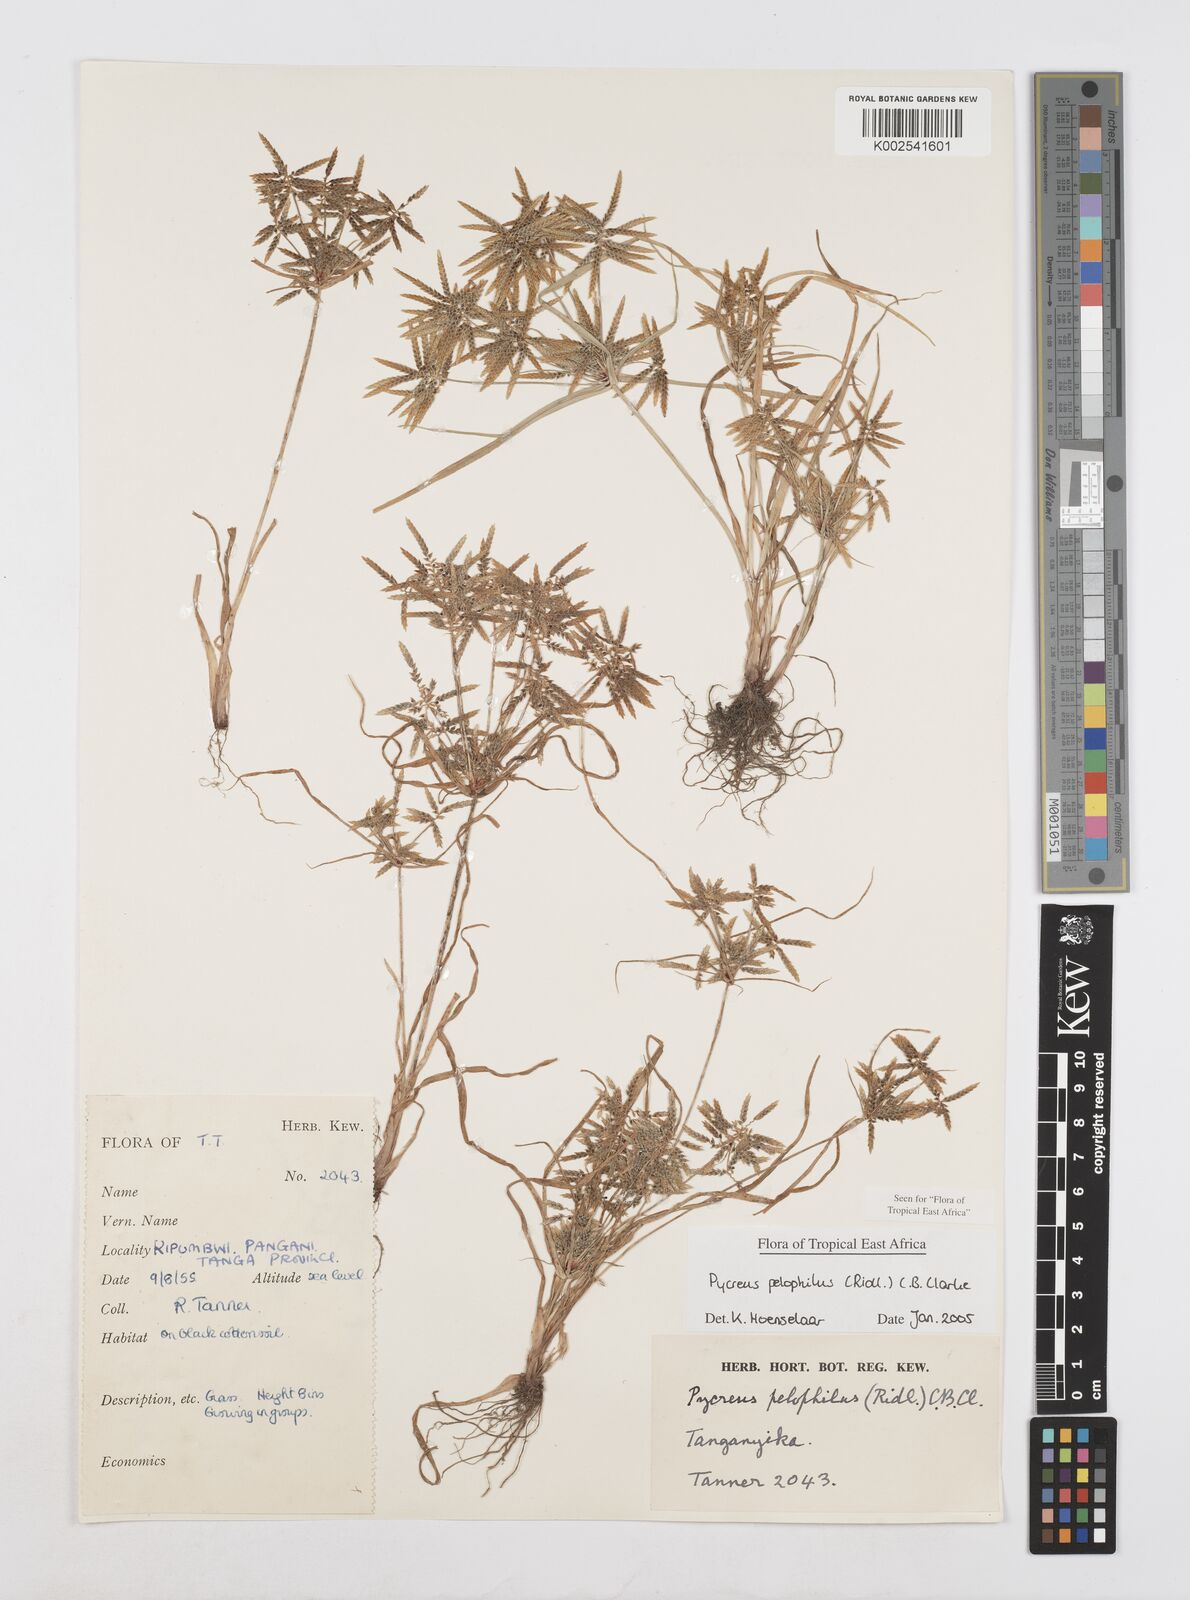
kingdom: Plantae
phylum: Tracheophyta
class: Liliopsida
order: Poales
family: Cyperaceae
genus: Cyperus
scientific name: Cyperus pelophilus
